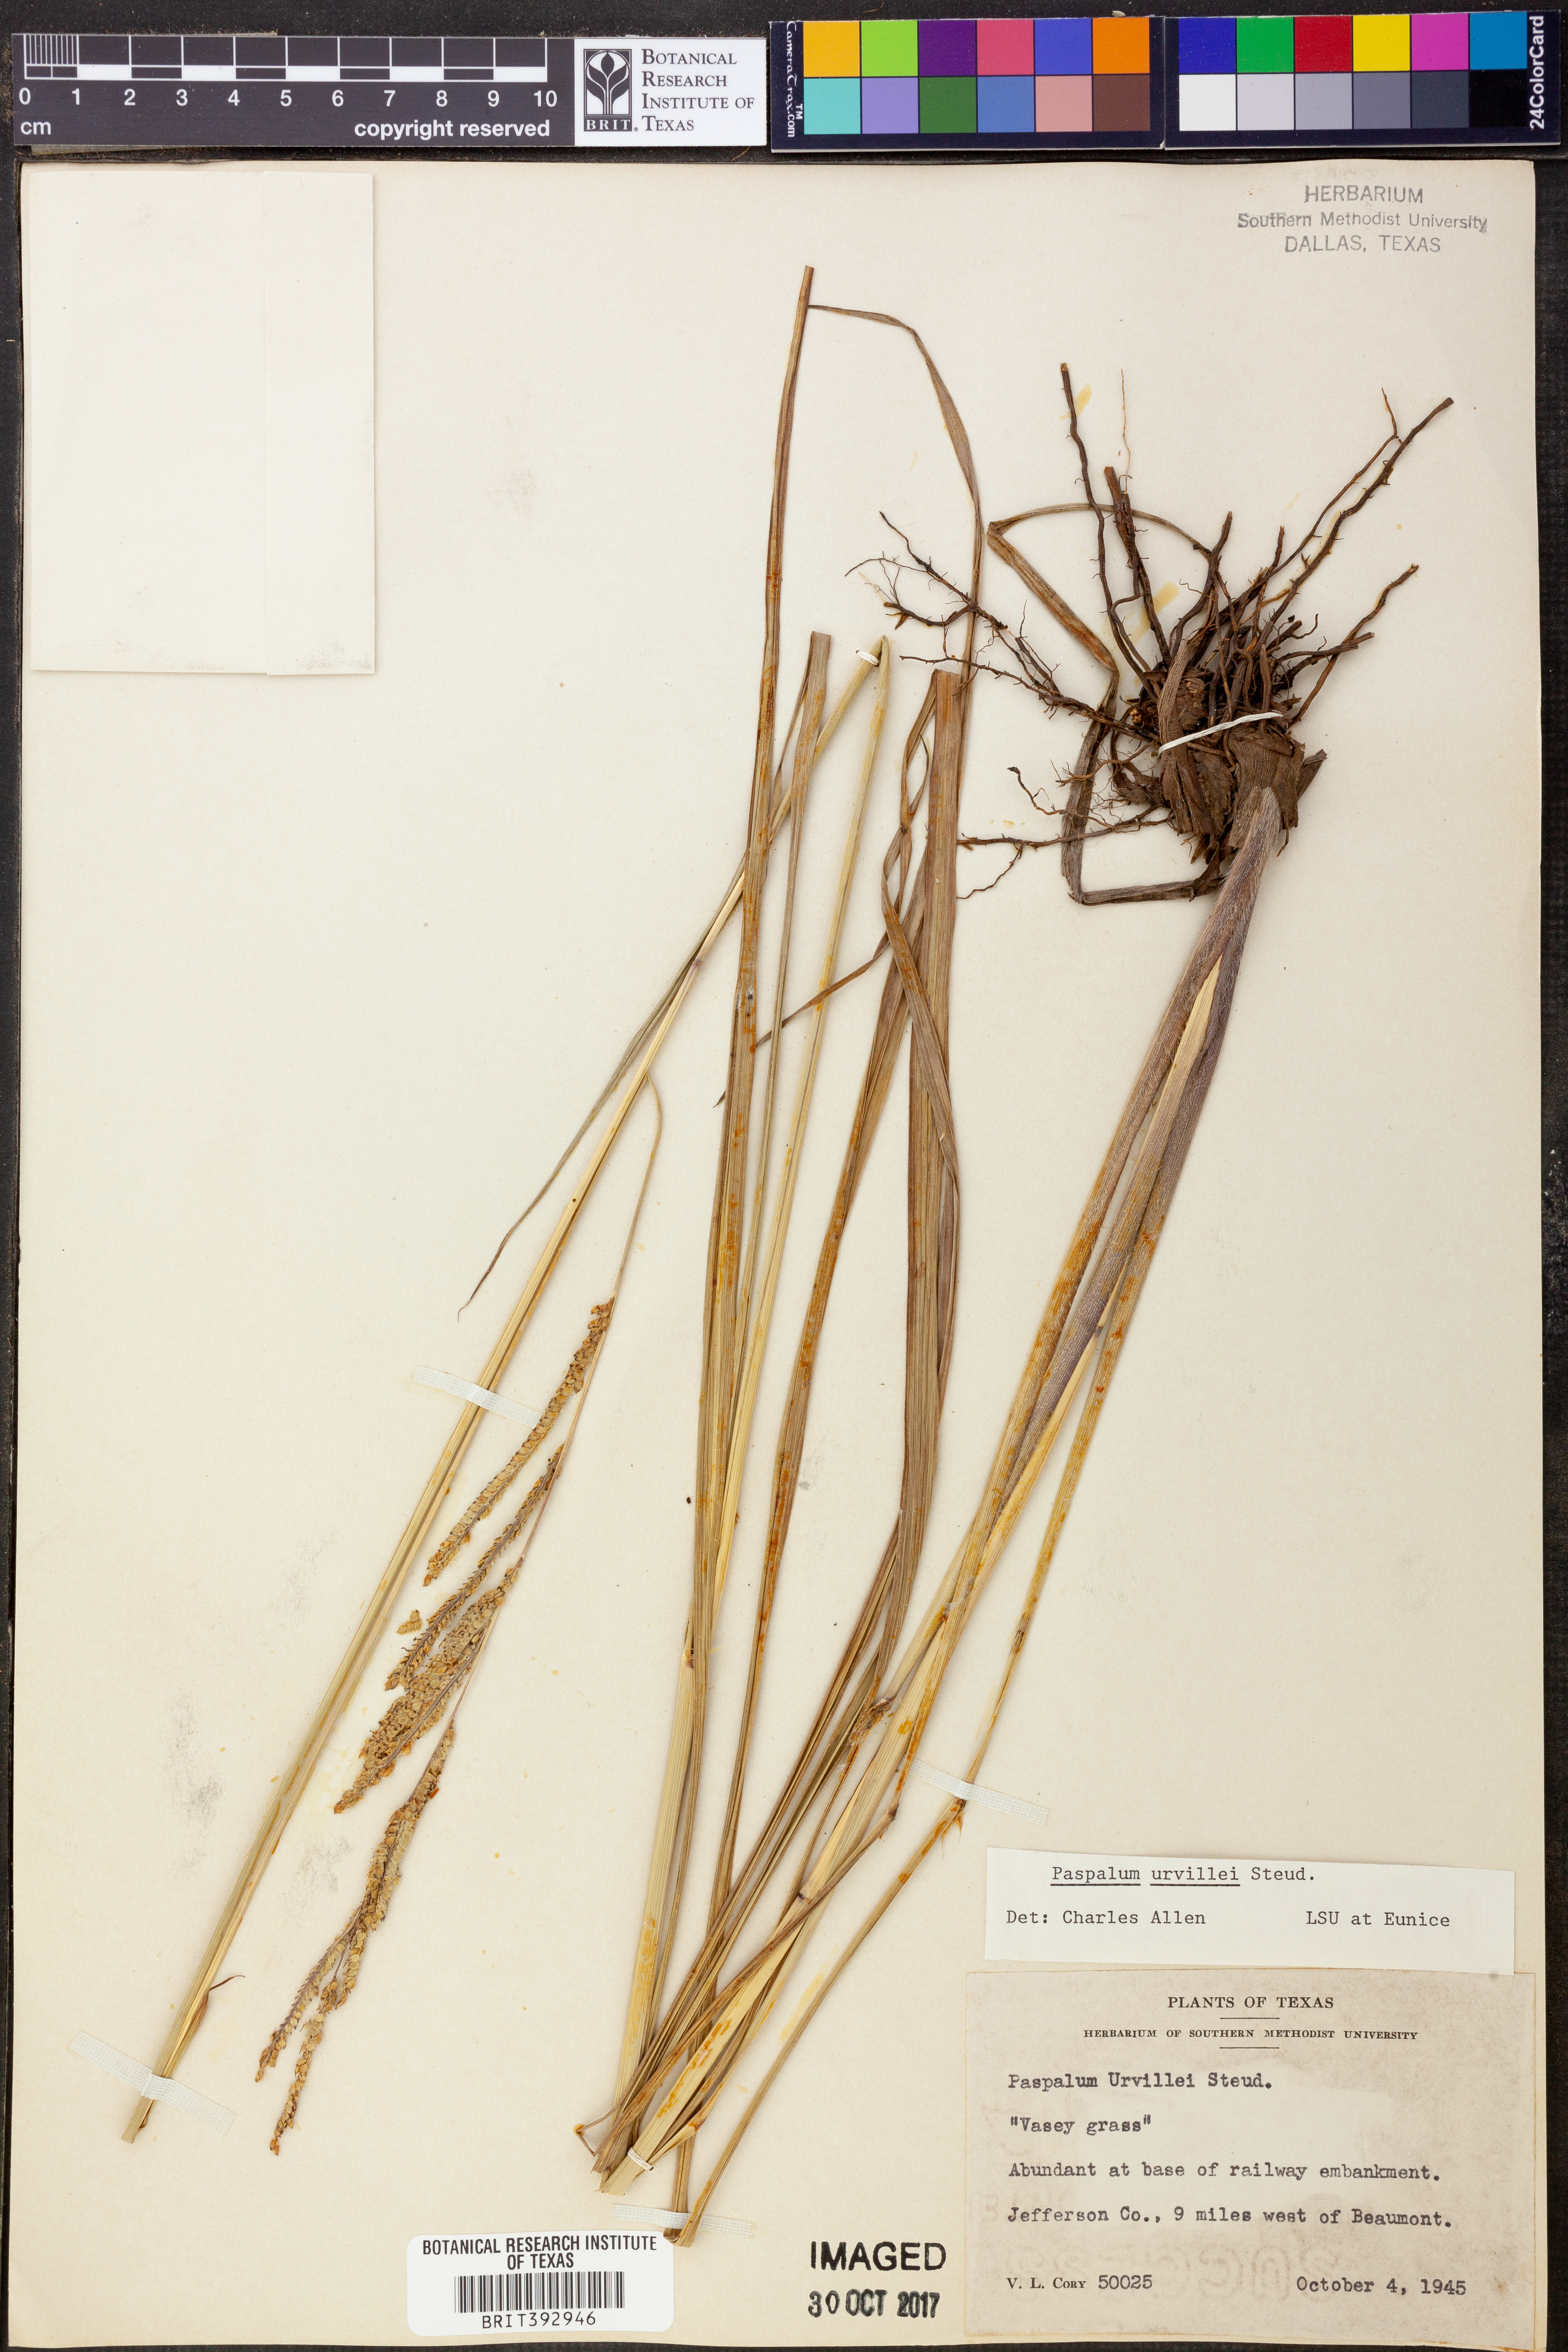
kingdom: Plantae
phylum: Tracheophyta
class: Liliopsida
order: Poales
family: Poaceae
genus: Paspalum
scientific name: Paspalum urvillei
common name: Vasey's grass
